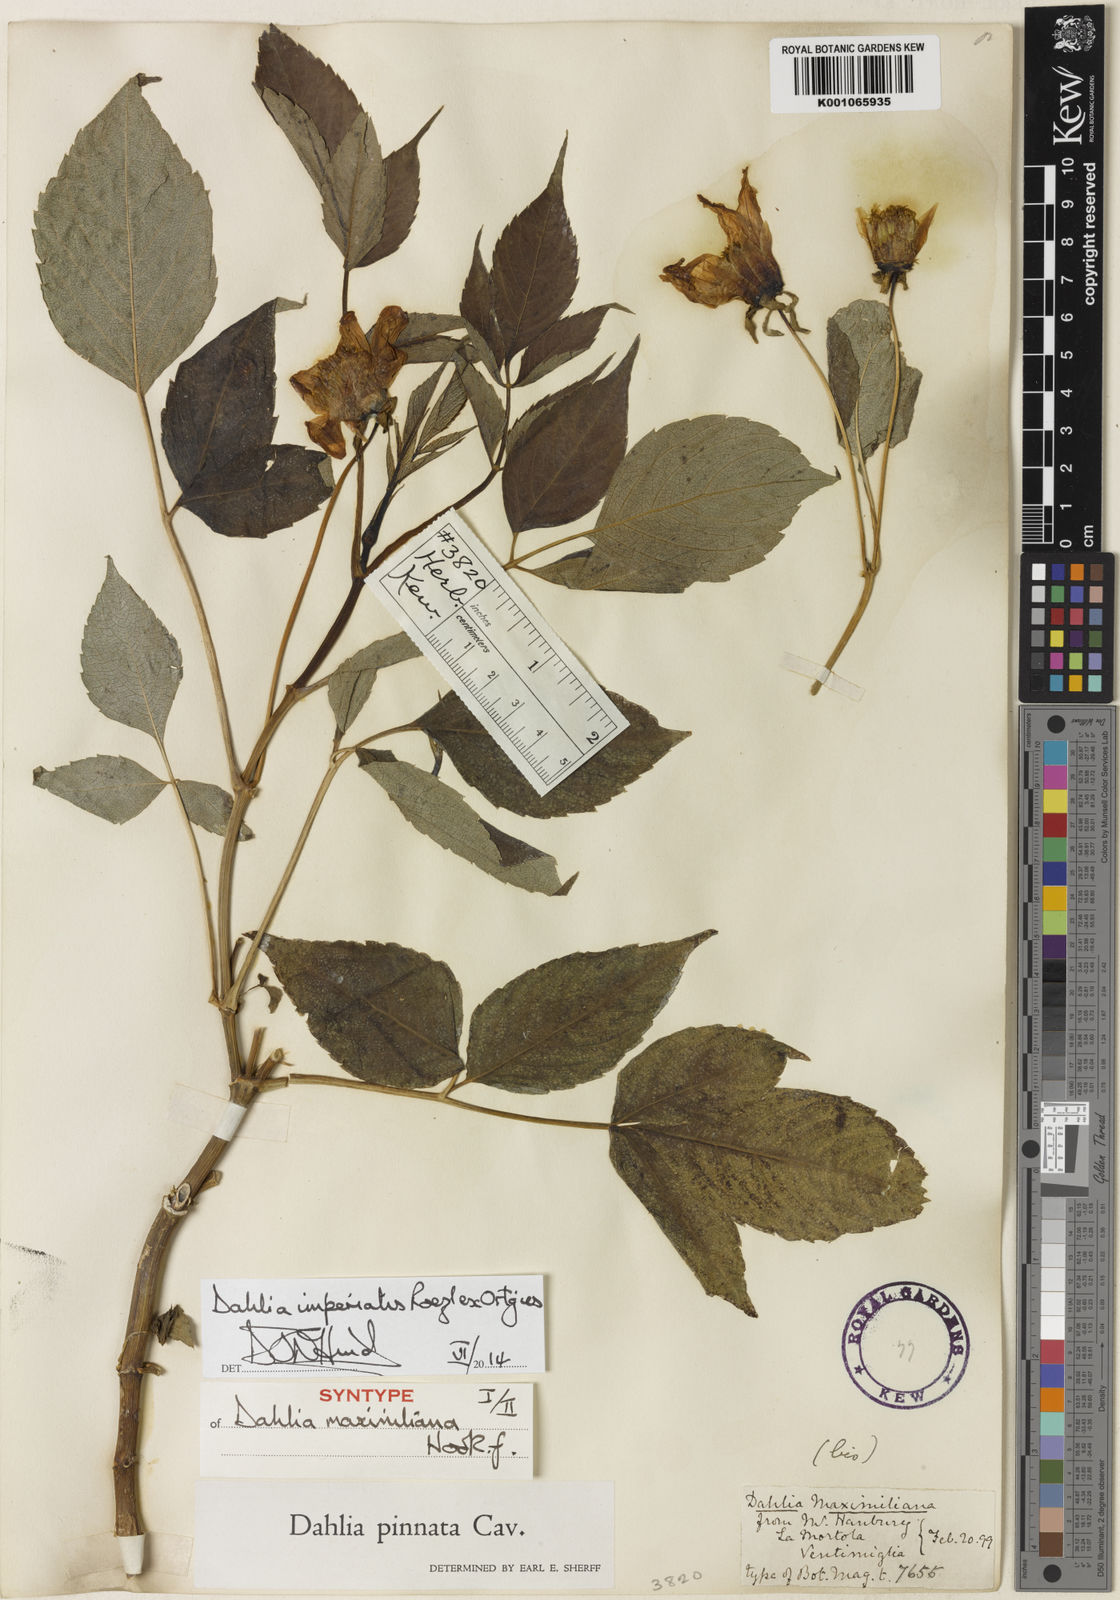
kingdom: Plantae
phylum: Tracheophyta
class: Magnoliopsida
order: Asterales
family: Asteraceae
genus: Dahlia
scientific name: Dahlia pinnata
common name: Dahlia
